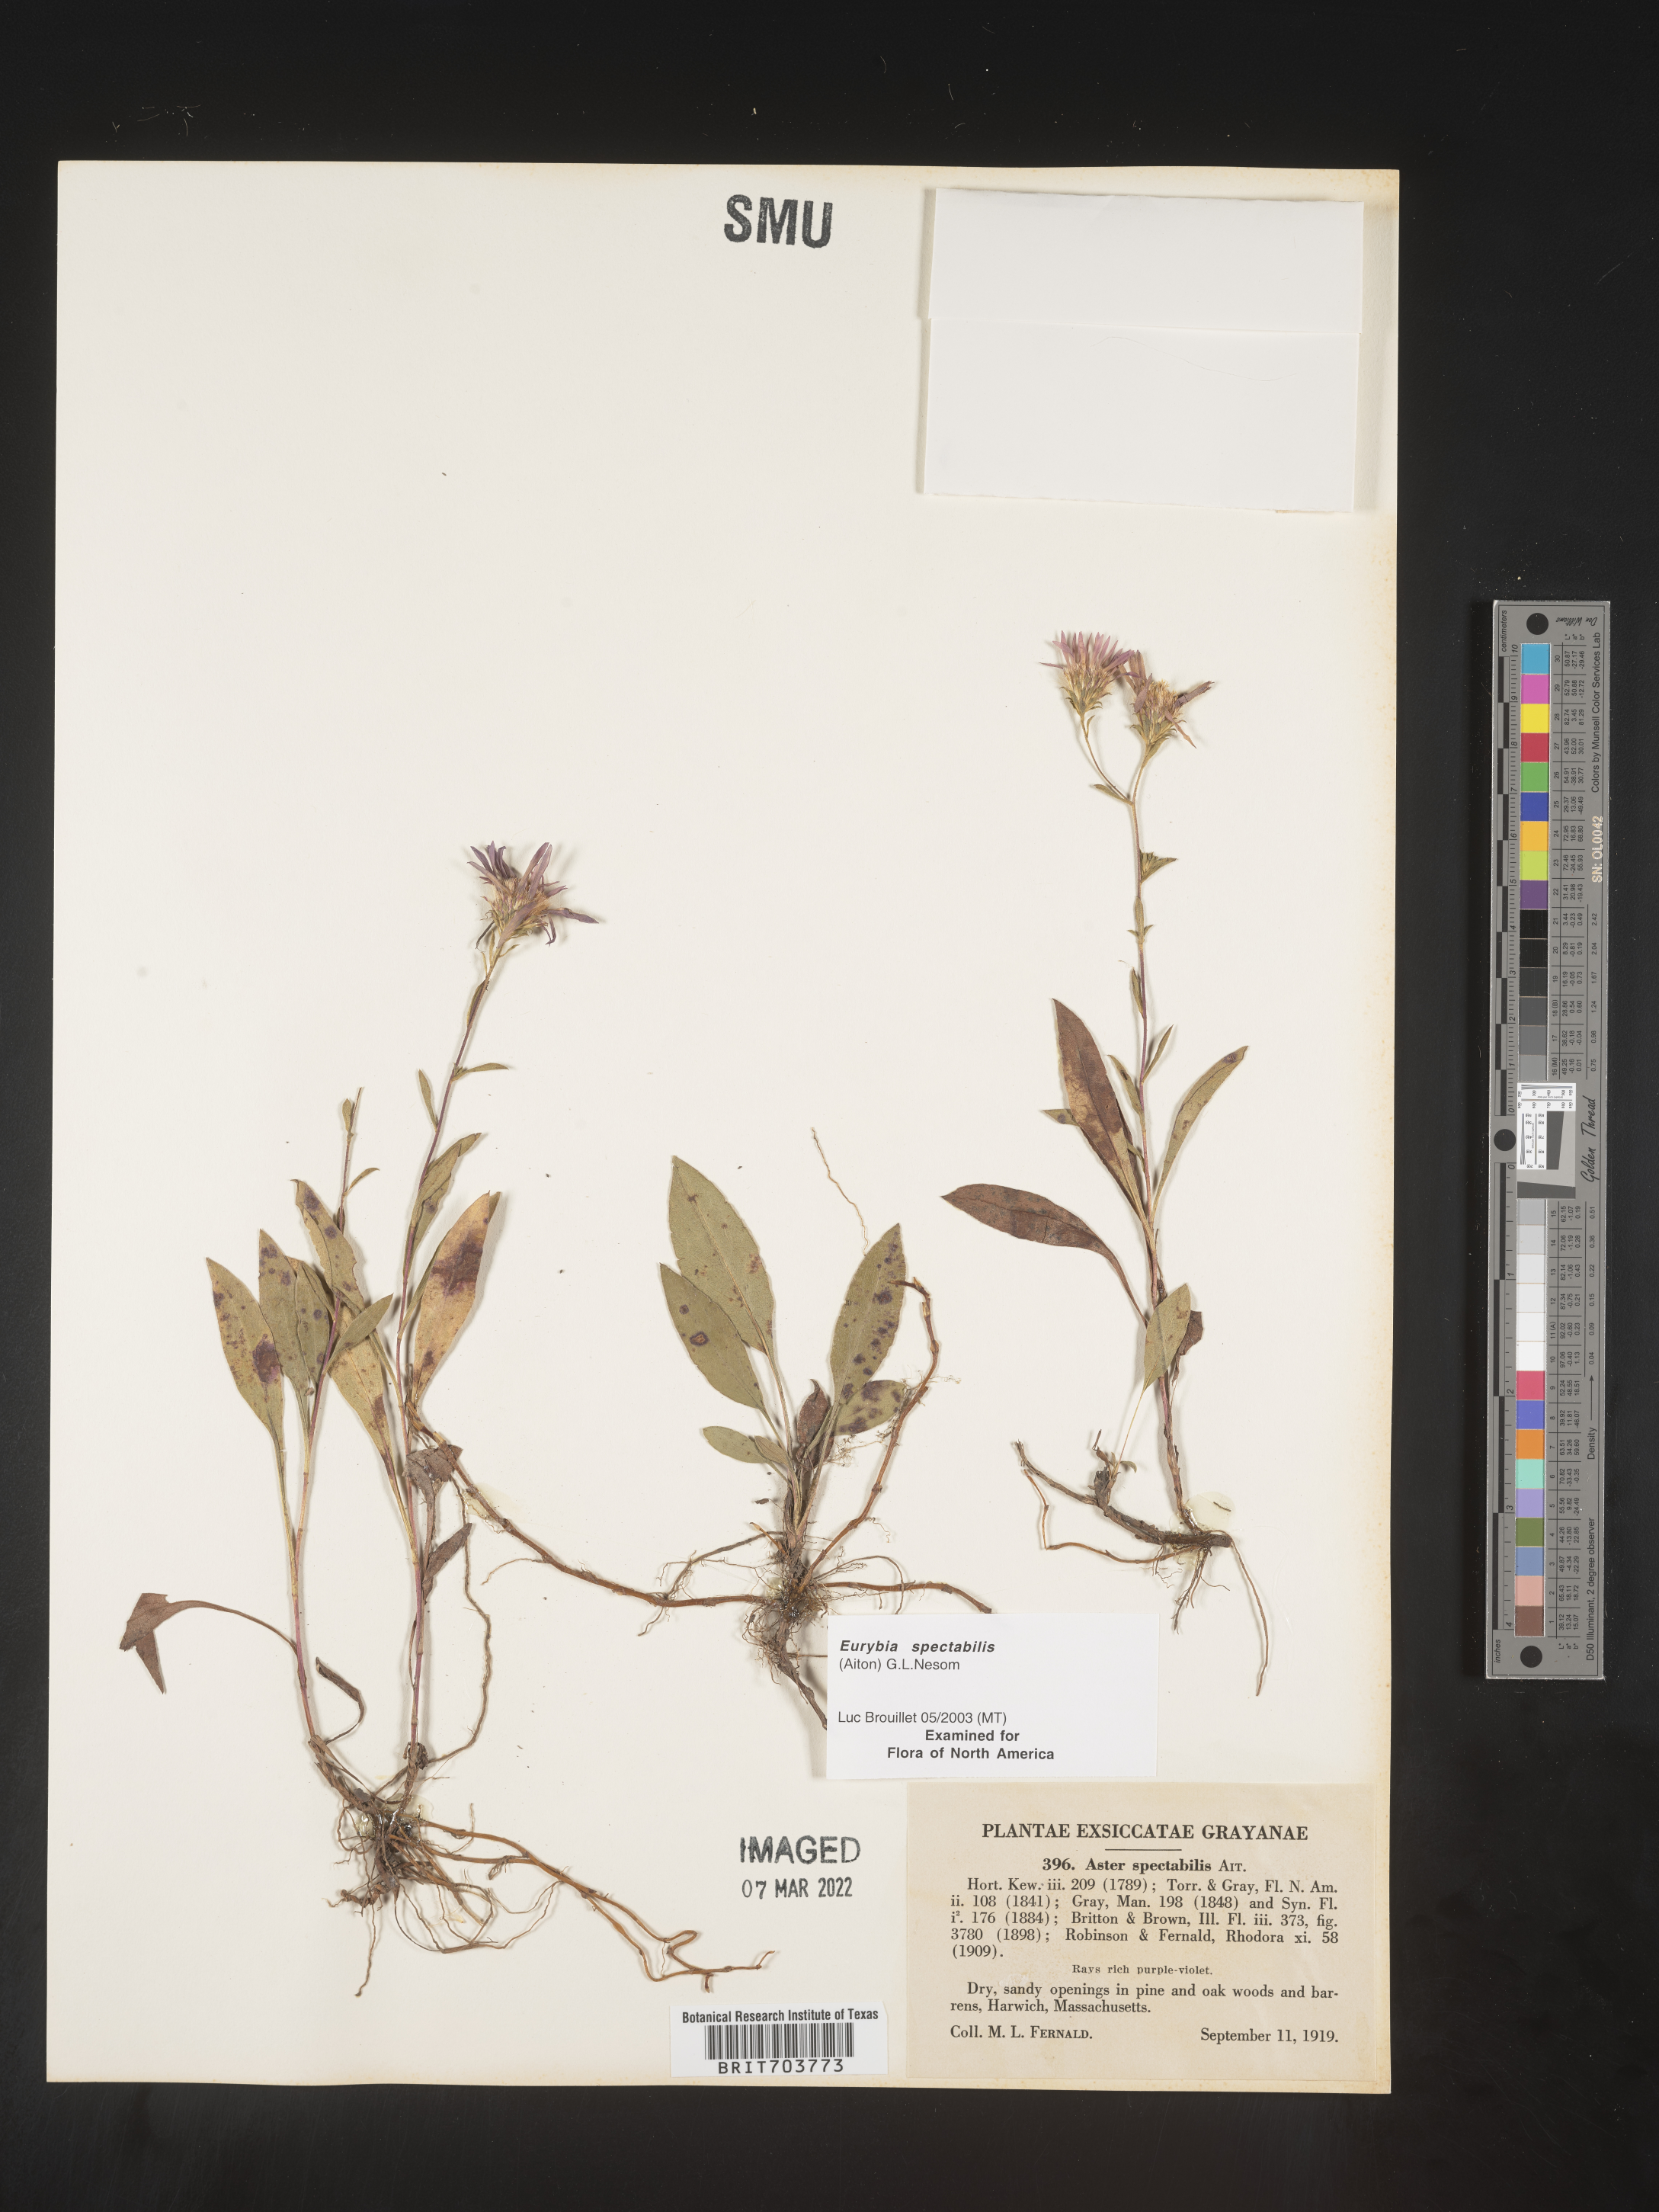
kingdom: Plantae
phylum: Tracheophyta
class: Magnoliopsida
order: Asterales
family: Asteraceae
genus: Eurybia
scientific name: Eurybia spectabilis
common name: Low showy aster
